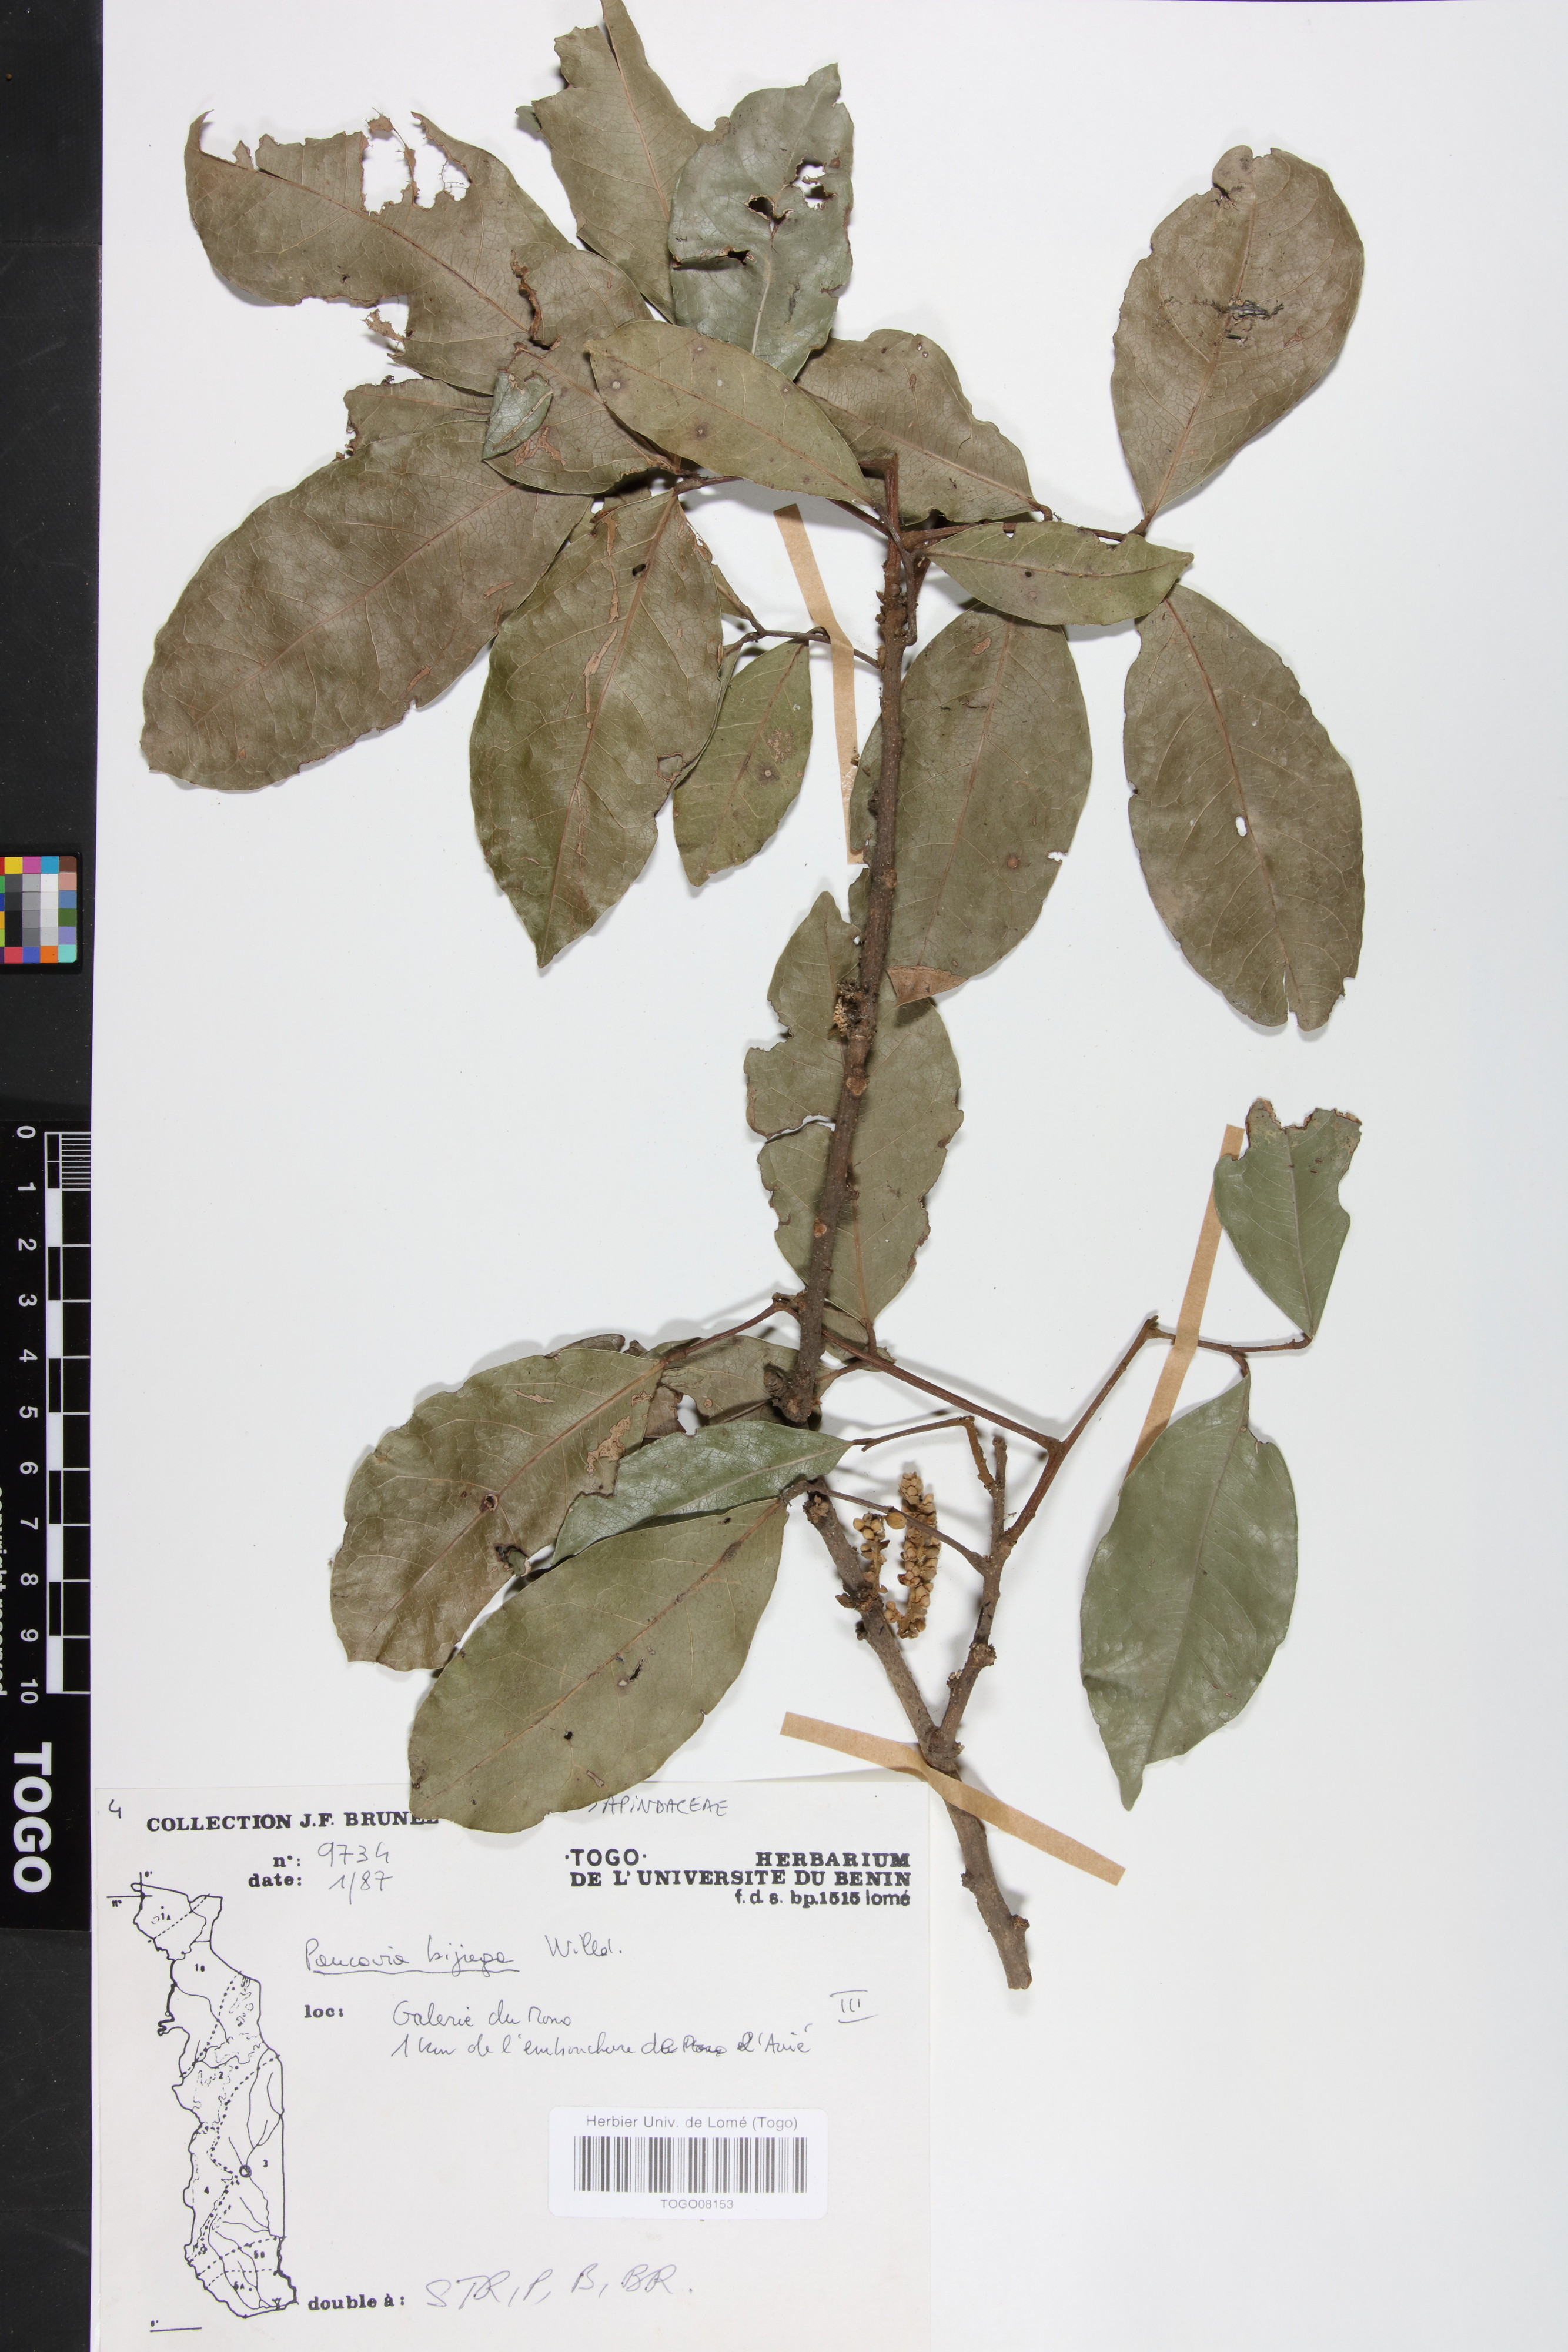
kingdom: Plantae
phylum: Tracheophyta
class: Magnoliopsida
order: Sapindales
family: Sapindaceae
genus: Pancovia
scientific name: Pancovia bijuga
